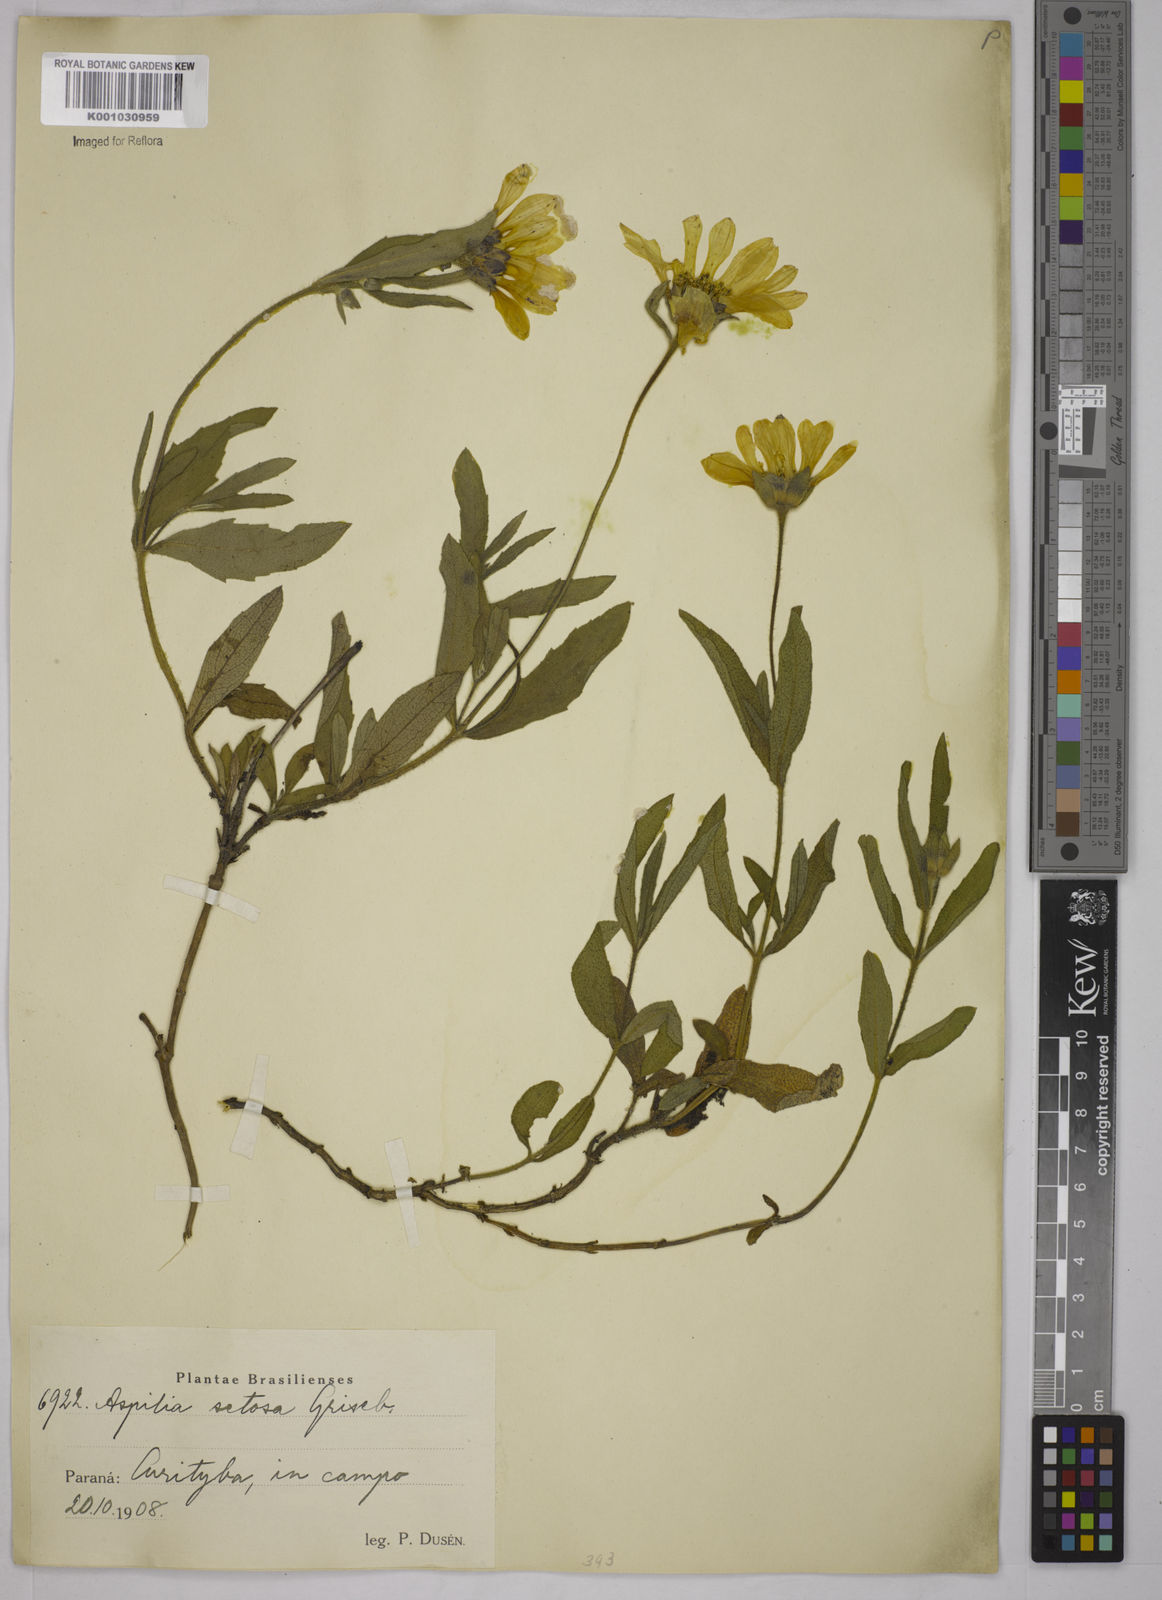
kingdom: Plantae
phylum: Tracheophyta
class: Magnoliopsida
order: Asterales
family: Asteraceae
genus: Aspilia
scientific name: Aspilia
